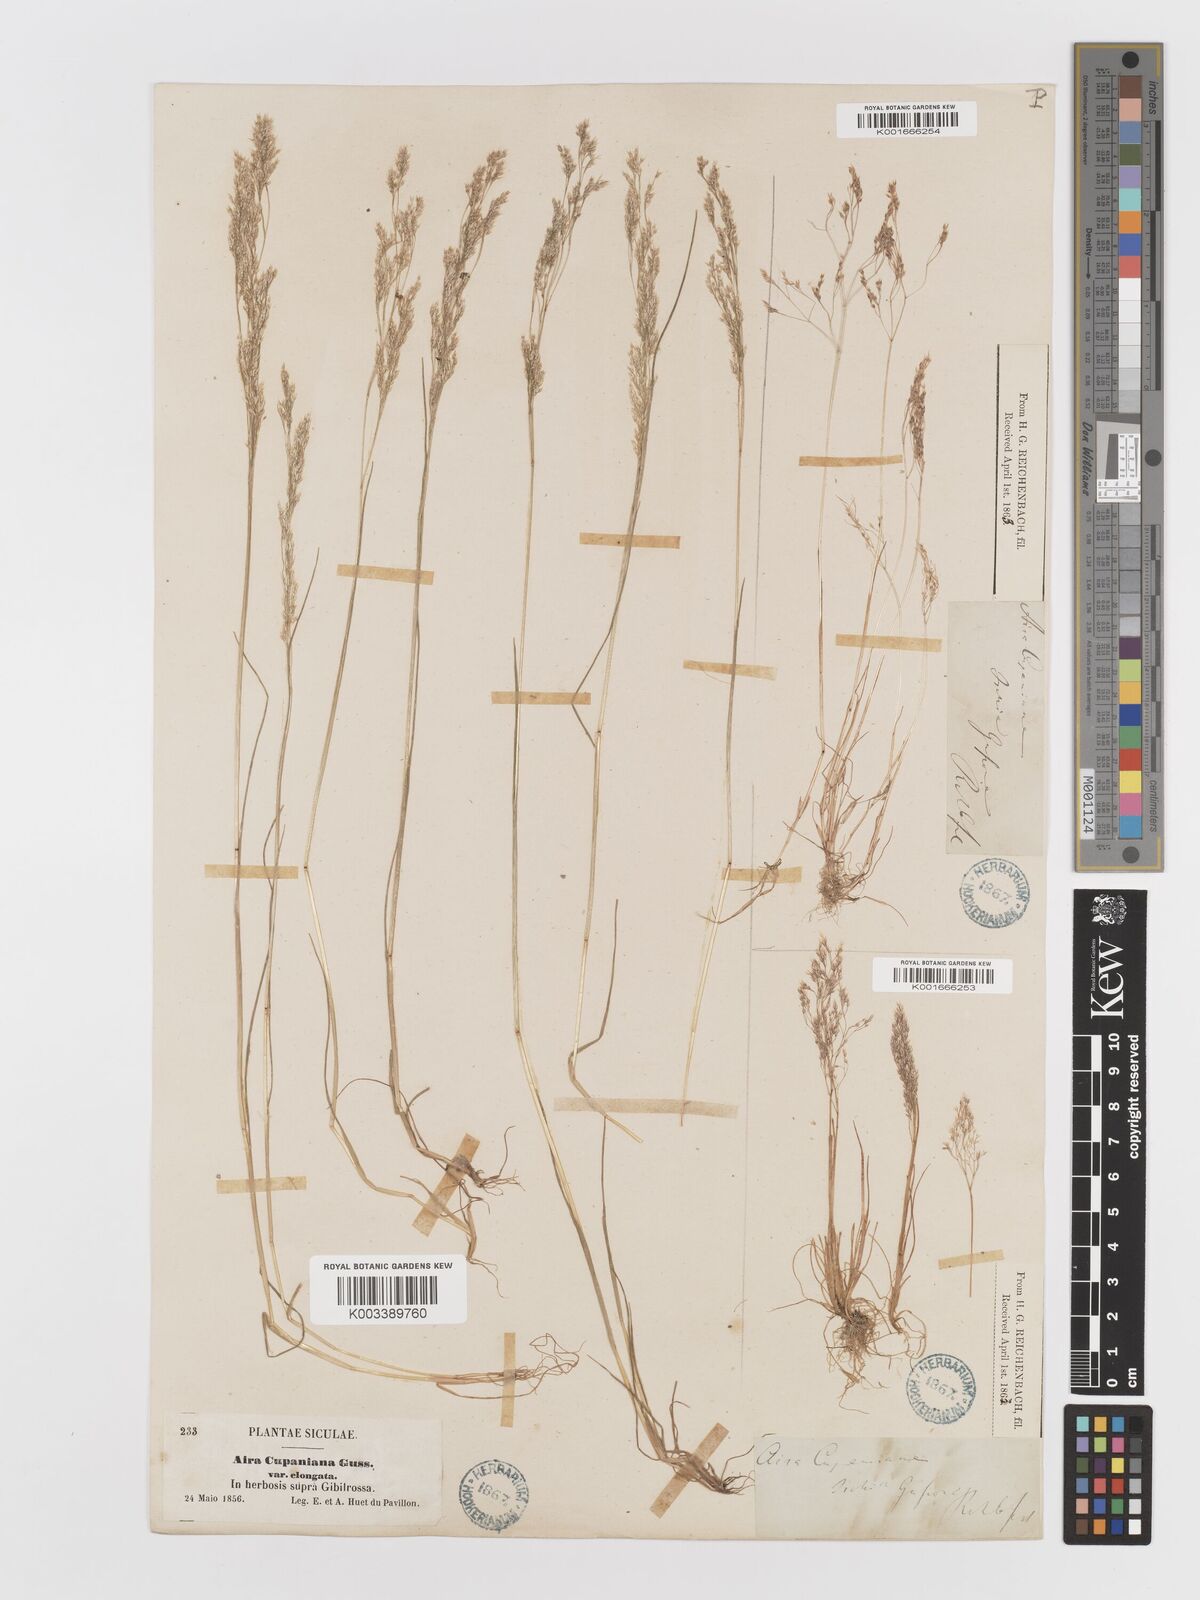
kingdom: Plantae
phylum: Tracheophyta
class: Liliopsida
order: Poales
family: Poaceae
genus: Aira
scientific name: Aira cupaniana
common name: Silver hairgrass
